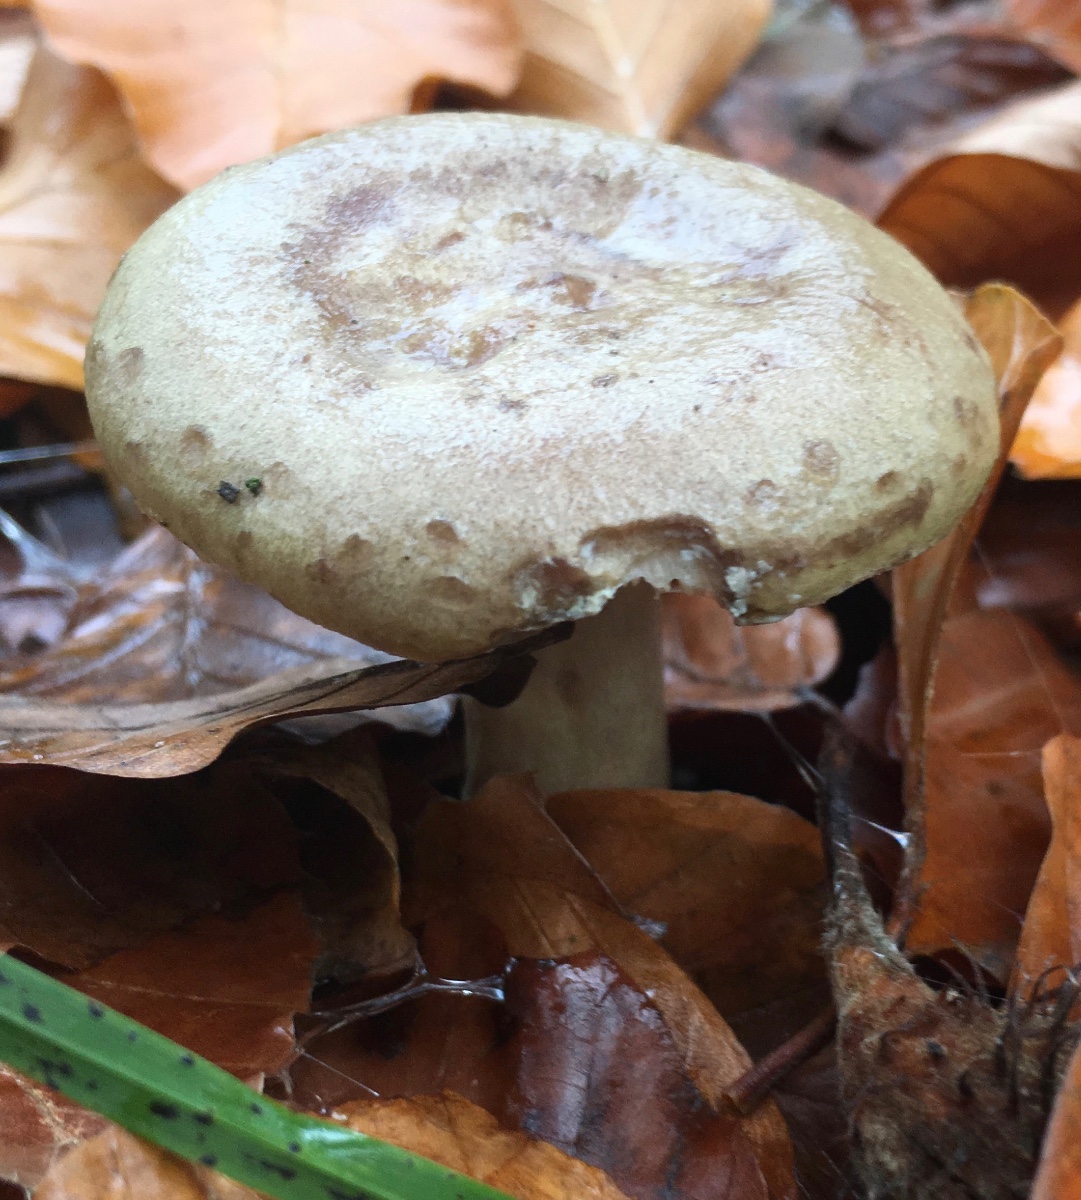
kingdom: Fungi
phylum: Basidiomycota
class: Agaricomycetes
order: Russulales
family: Russulaceae
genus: Lactarius
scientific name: Lactarius blennius
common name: dråbeplettet mælkehat
